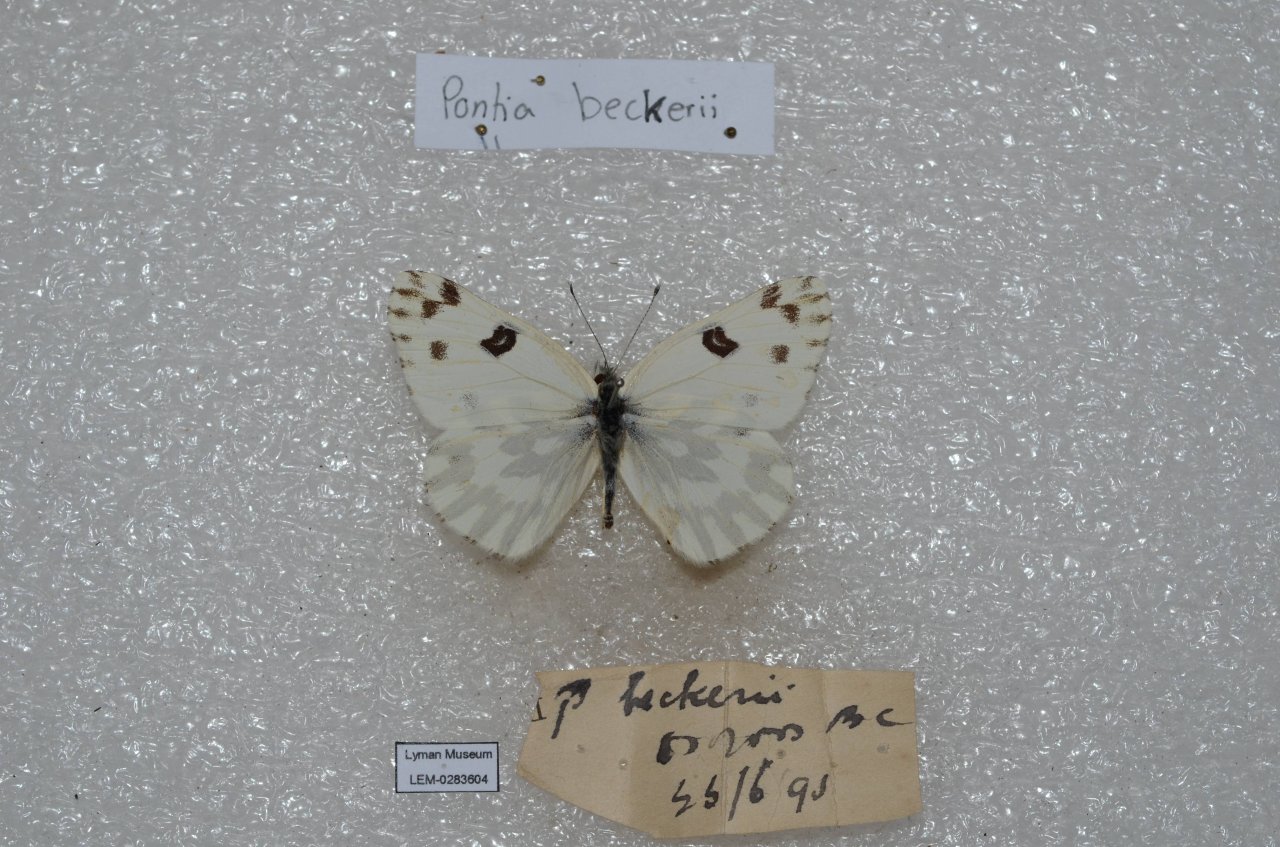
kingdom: Animalia
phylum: Arthropoda
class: Insecta
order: Lepidoptera
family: Pieridae
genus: Pontia
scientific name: Pontia beckerii
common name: Becker's White
